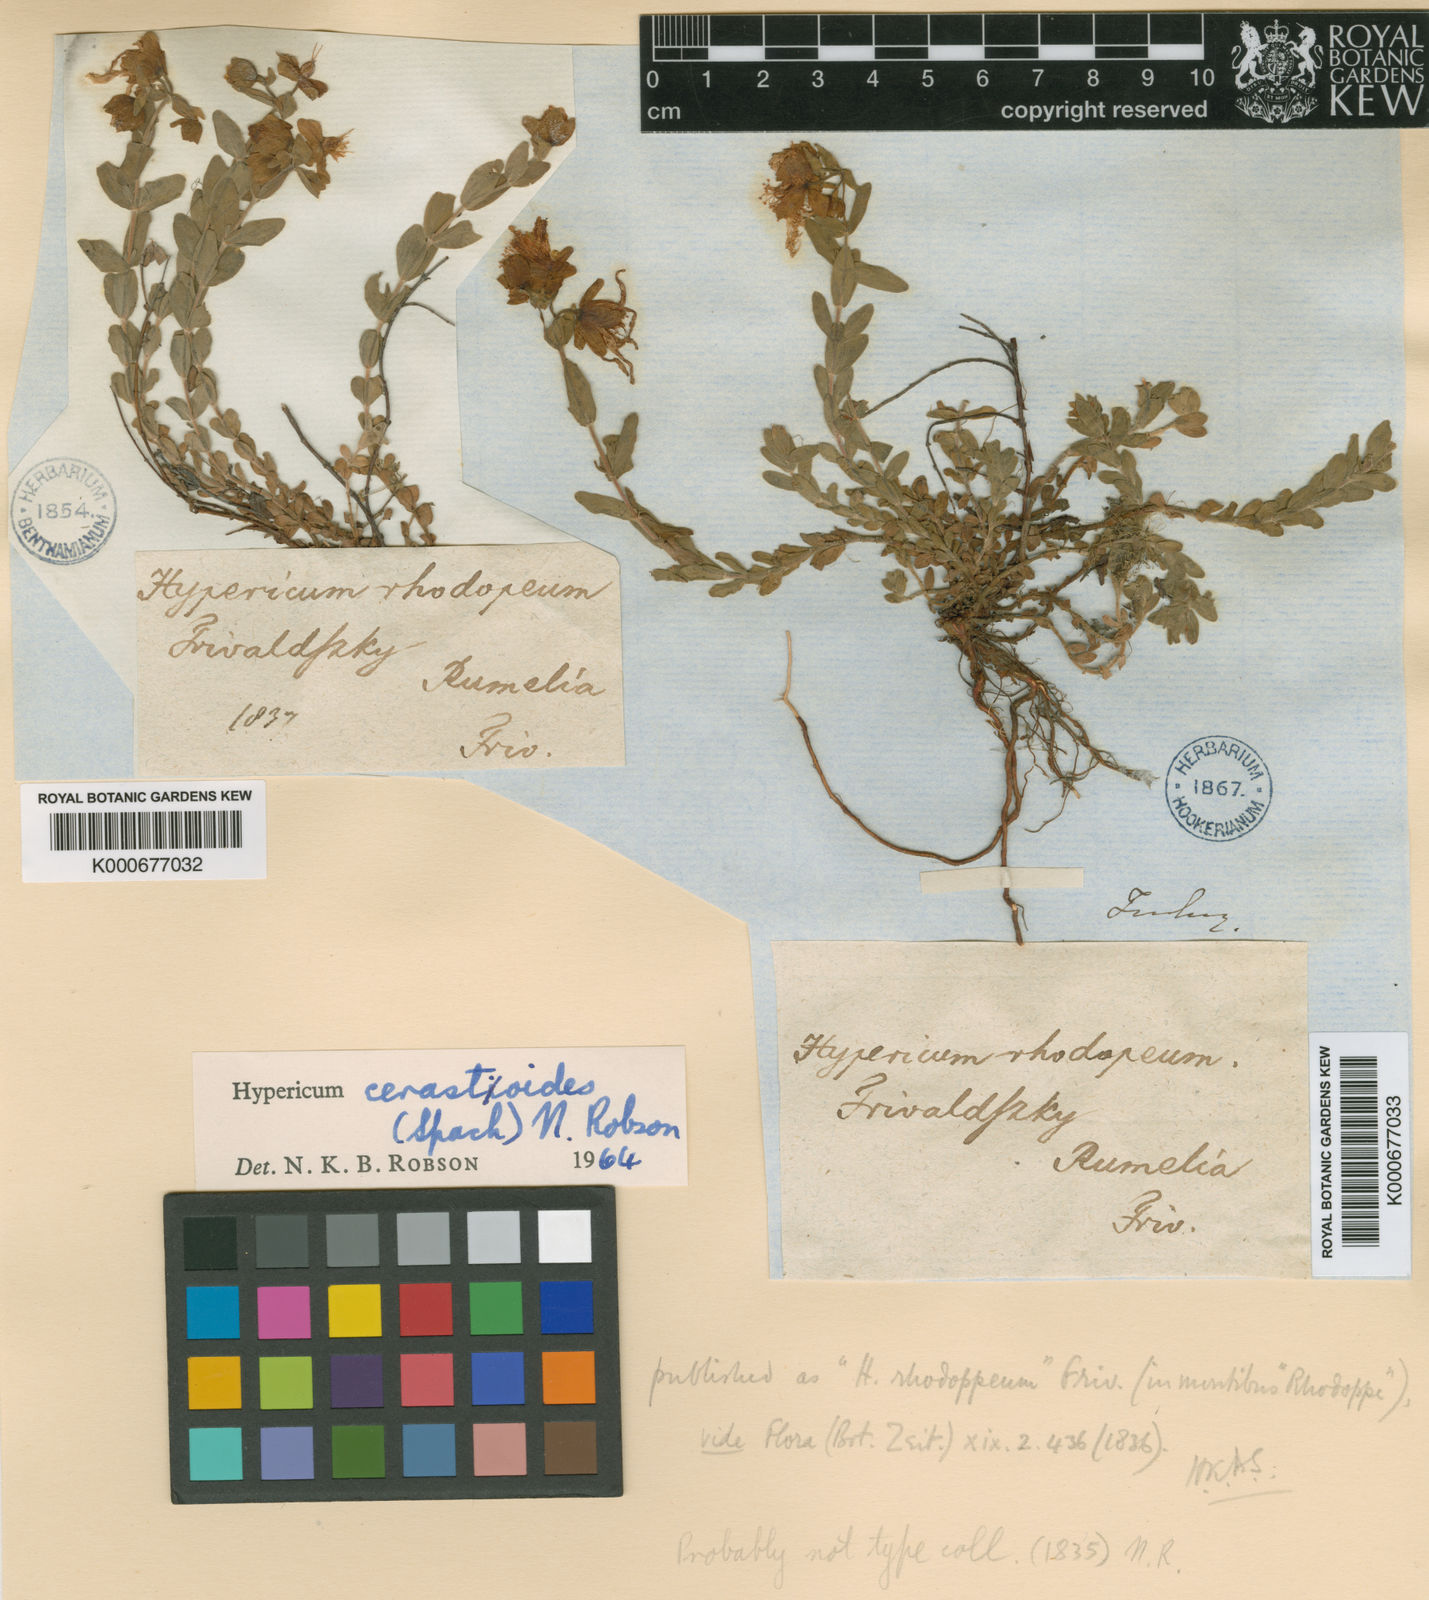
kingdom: Plantae
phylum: Tracheophyta
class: Magnoliopsida
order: Malpighiales
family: Hypericaceae
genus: Hypericum
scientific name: Hypericum cerastoides
